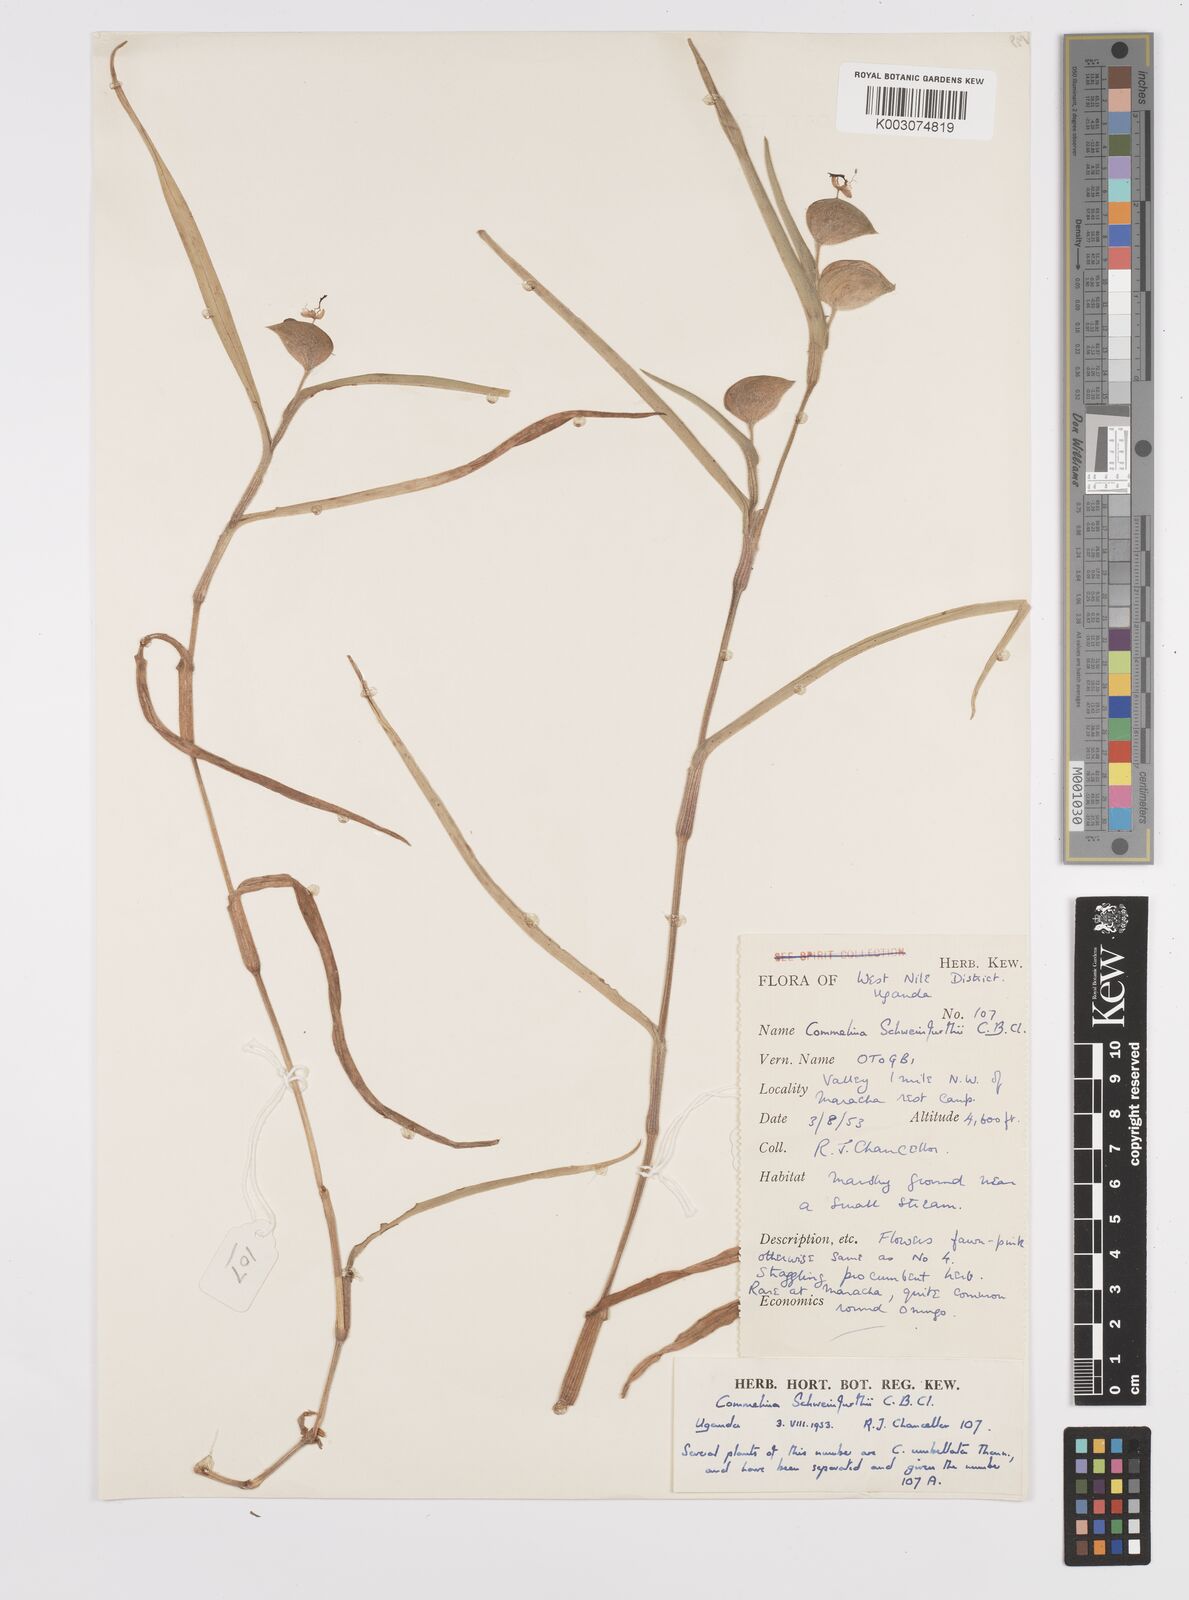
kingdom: Plantae
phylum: Tracheophyta
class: Liliopsida
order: Commelinales
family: Commelinaceae
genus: Commelina
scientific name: Commelina schweinfurthii
